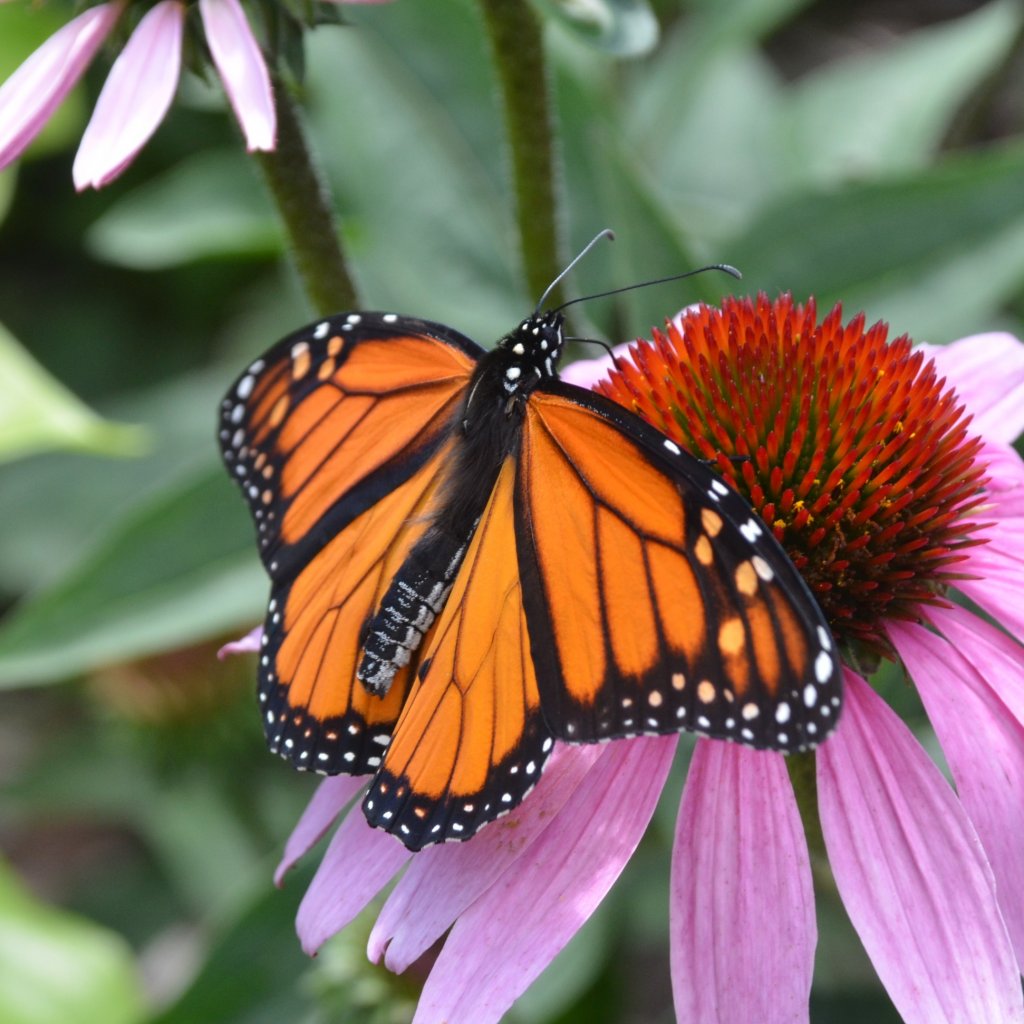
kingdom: Animalia
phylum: Arthropoda
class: Insecta
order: Lepidoptera
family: Nymphalidae
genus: Danaus
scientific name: Danaus plexippus
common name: Monarch
